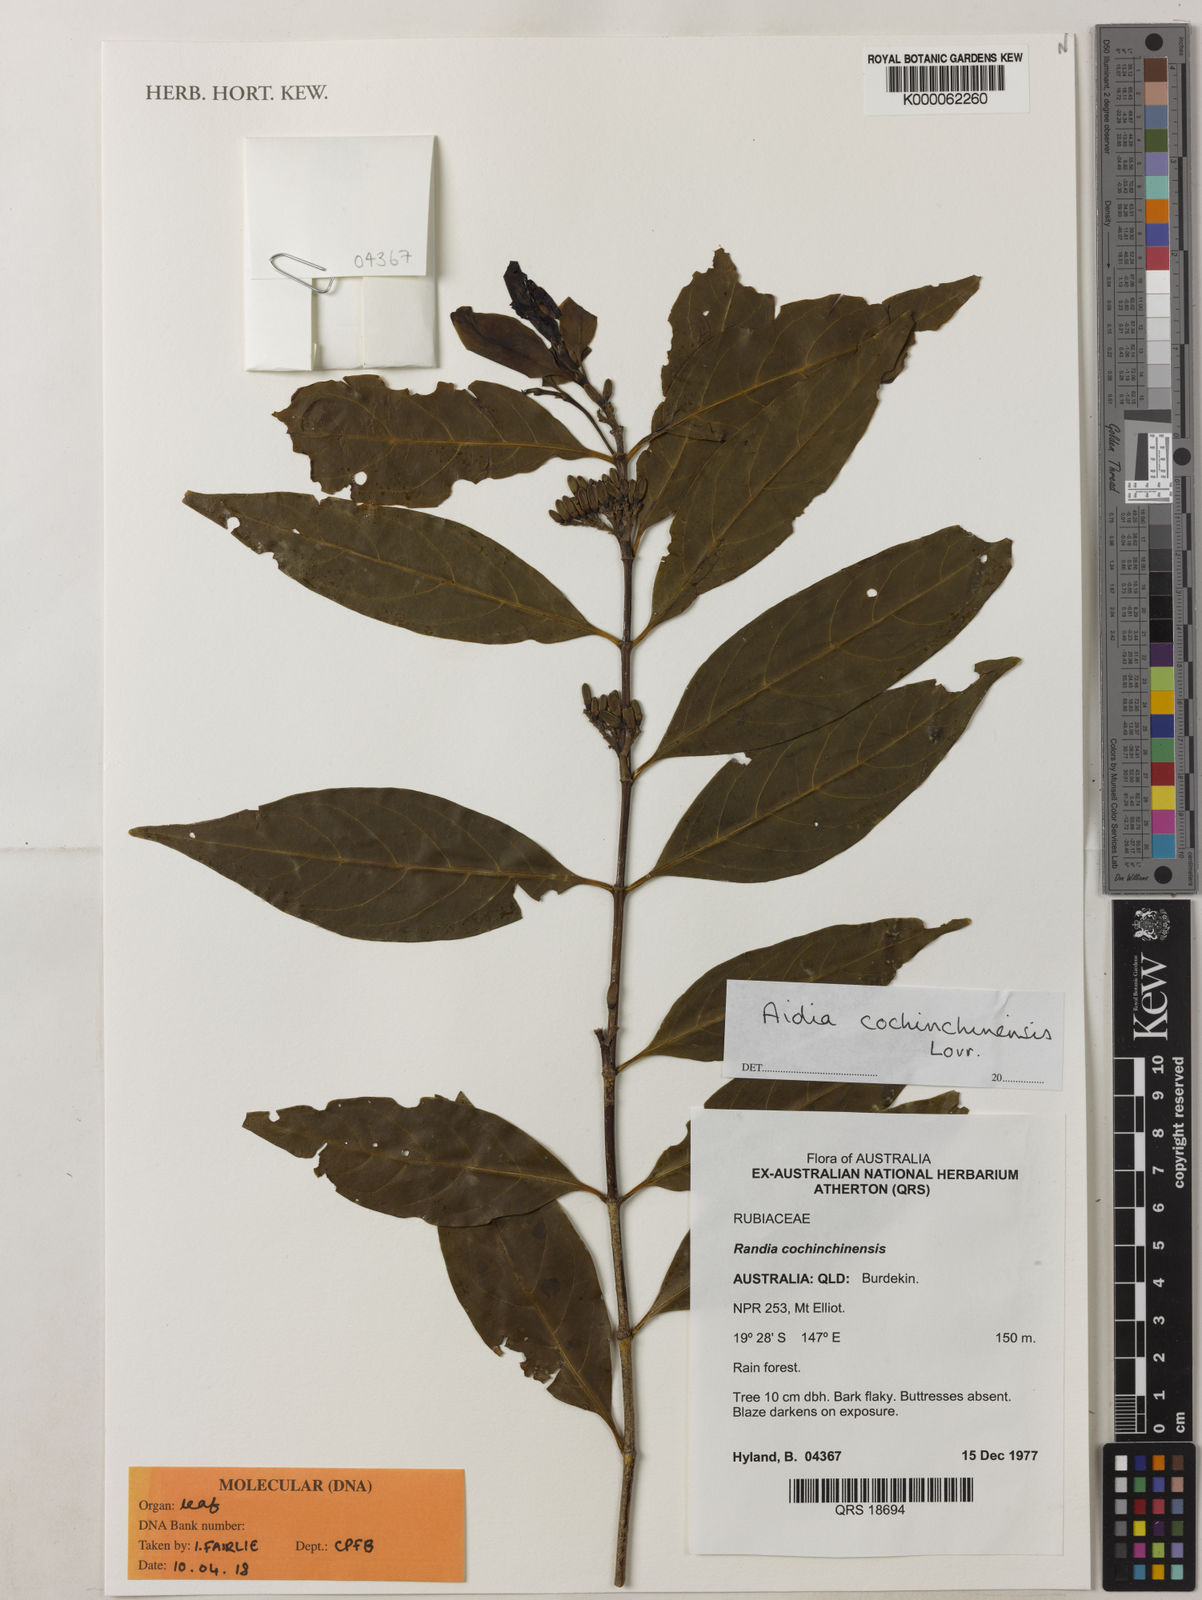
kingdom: Plantae
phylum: Tracheophyta
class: Magnoliopsida
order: Gentianales
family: Rubiaceae
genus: Aidia
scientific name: Aidia cochinchinensis
